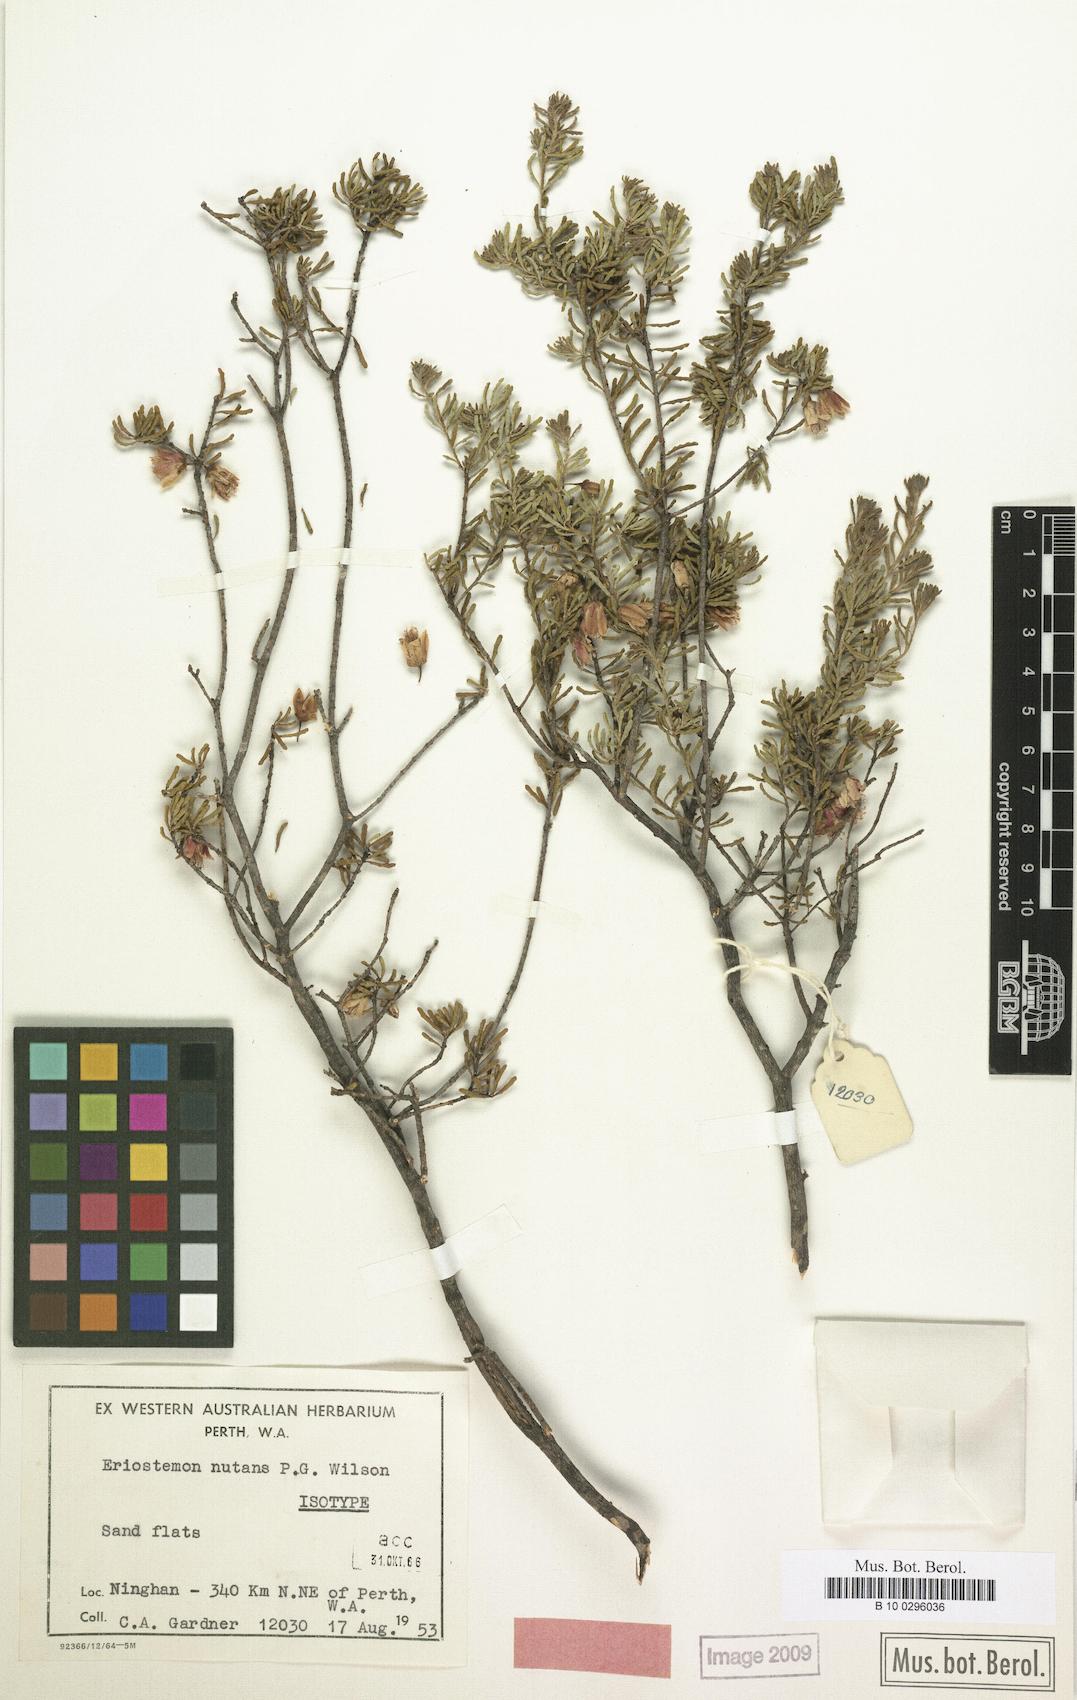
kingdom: Plantae
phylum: Tracheophyta
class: Magnoliopsida
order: Sapindales
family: Rutaceae
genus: Philotheca
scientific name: Philotheca nutans
